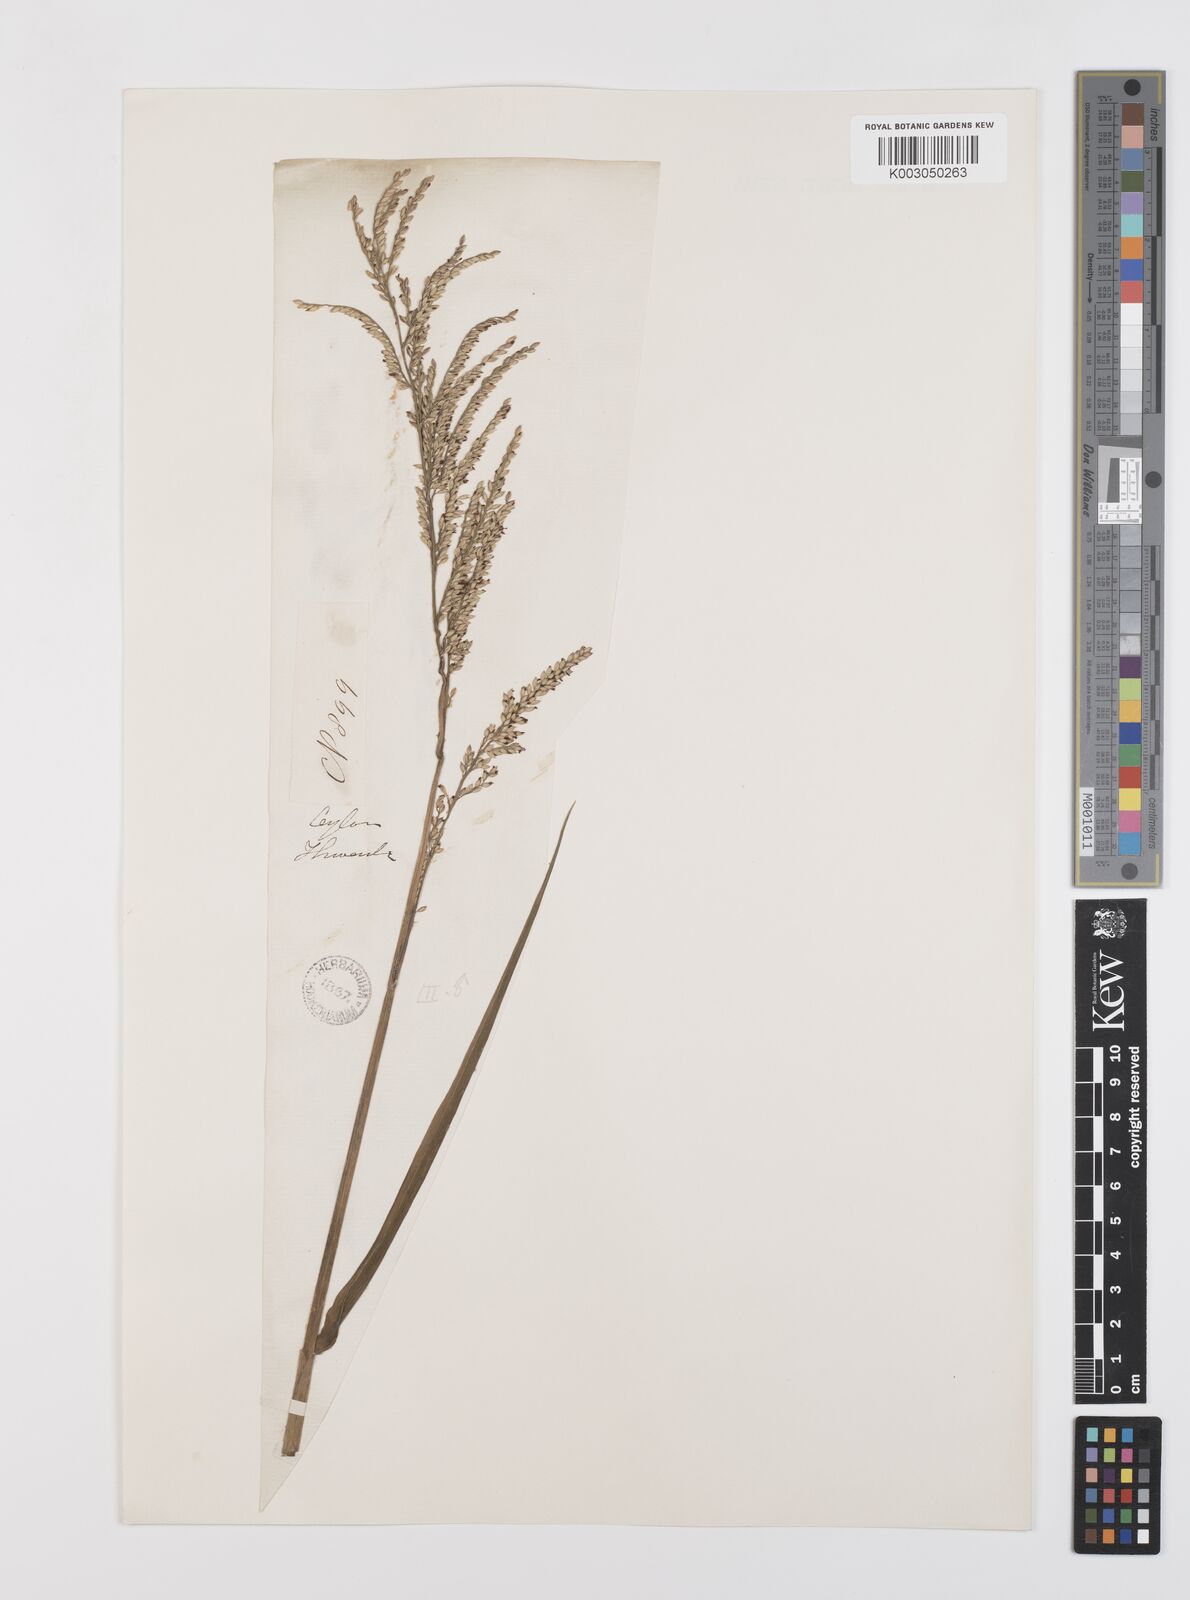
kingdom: Plantae
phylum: Tracheophyta
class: Liliopsida
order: Poales
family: Poaceae
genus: Urochloa
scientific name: Urochloa mutica
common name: Para grass
